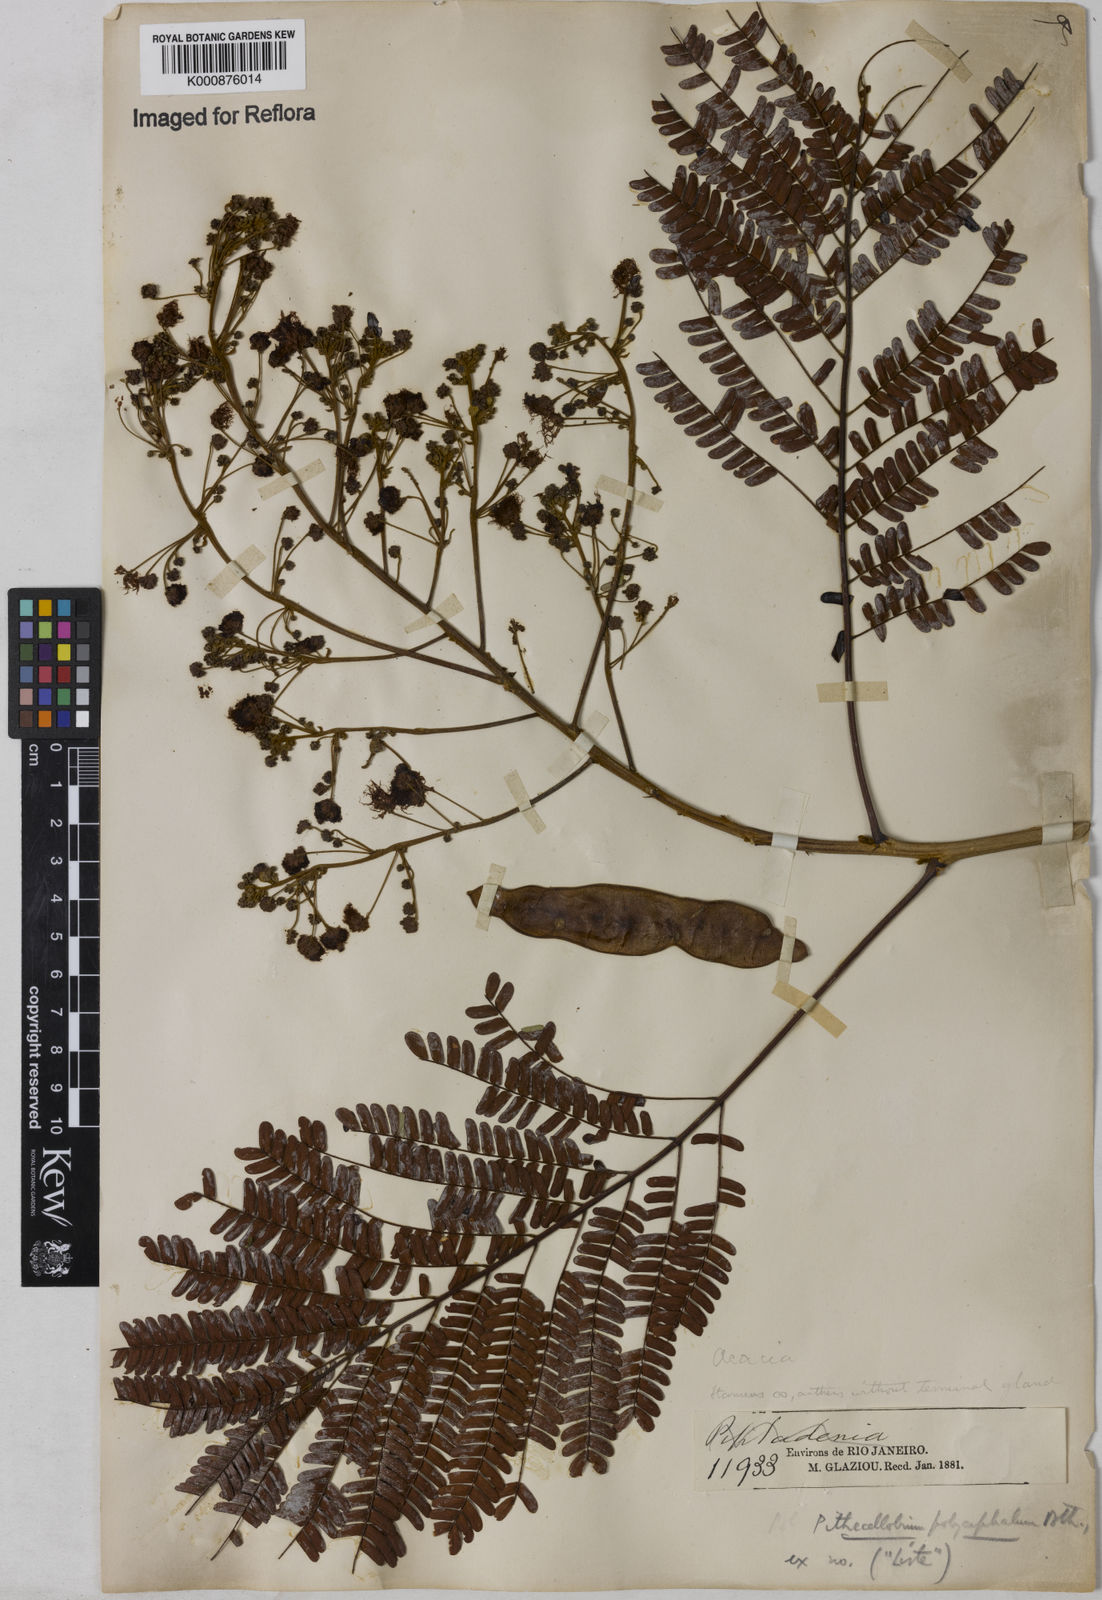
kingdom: Plantae
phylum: Tracheophyta
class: Magnoliopsida
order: Fabales
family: Fabaceae
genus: Albizia
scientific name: Albizia
